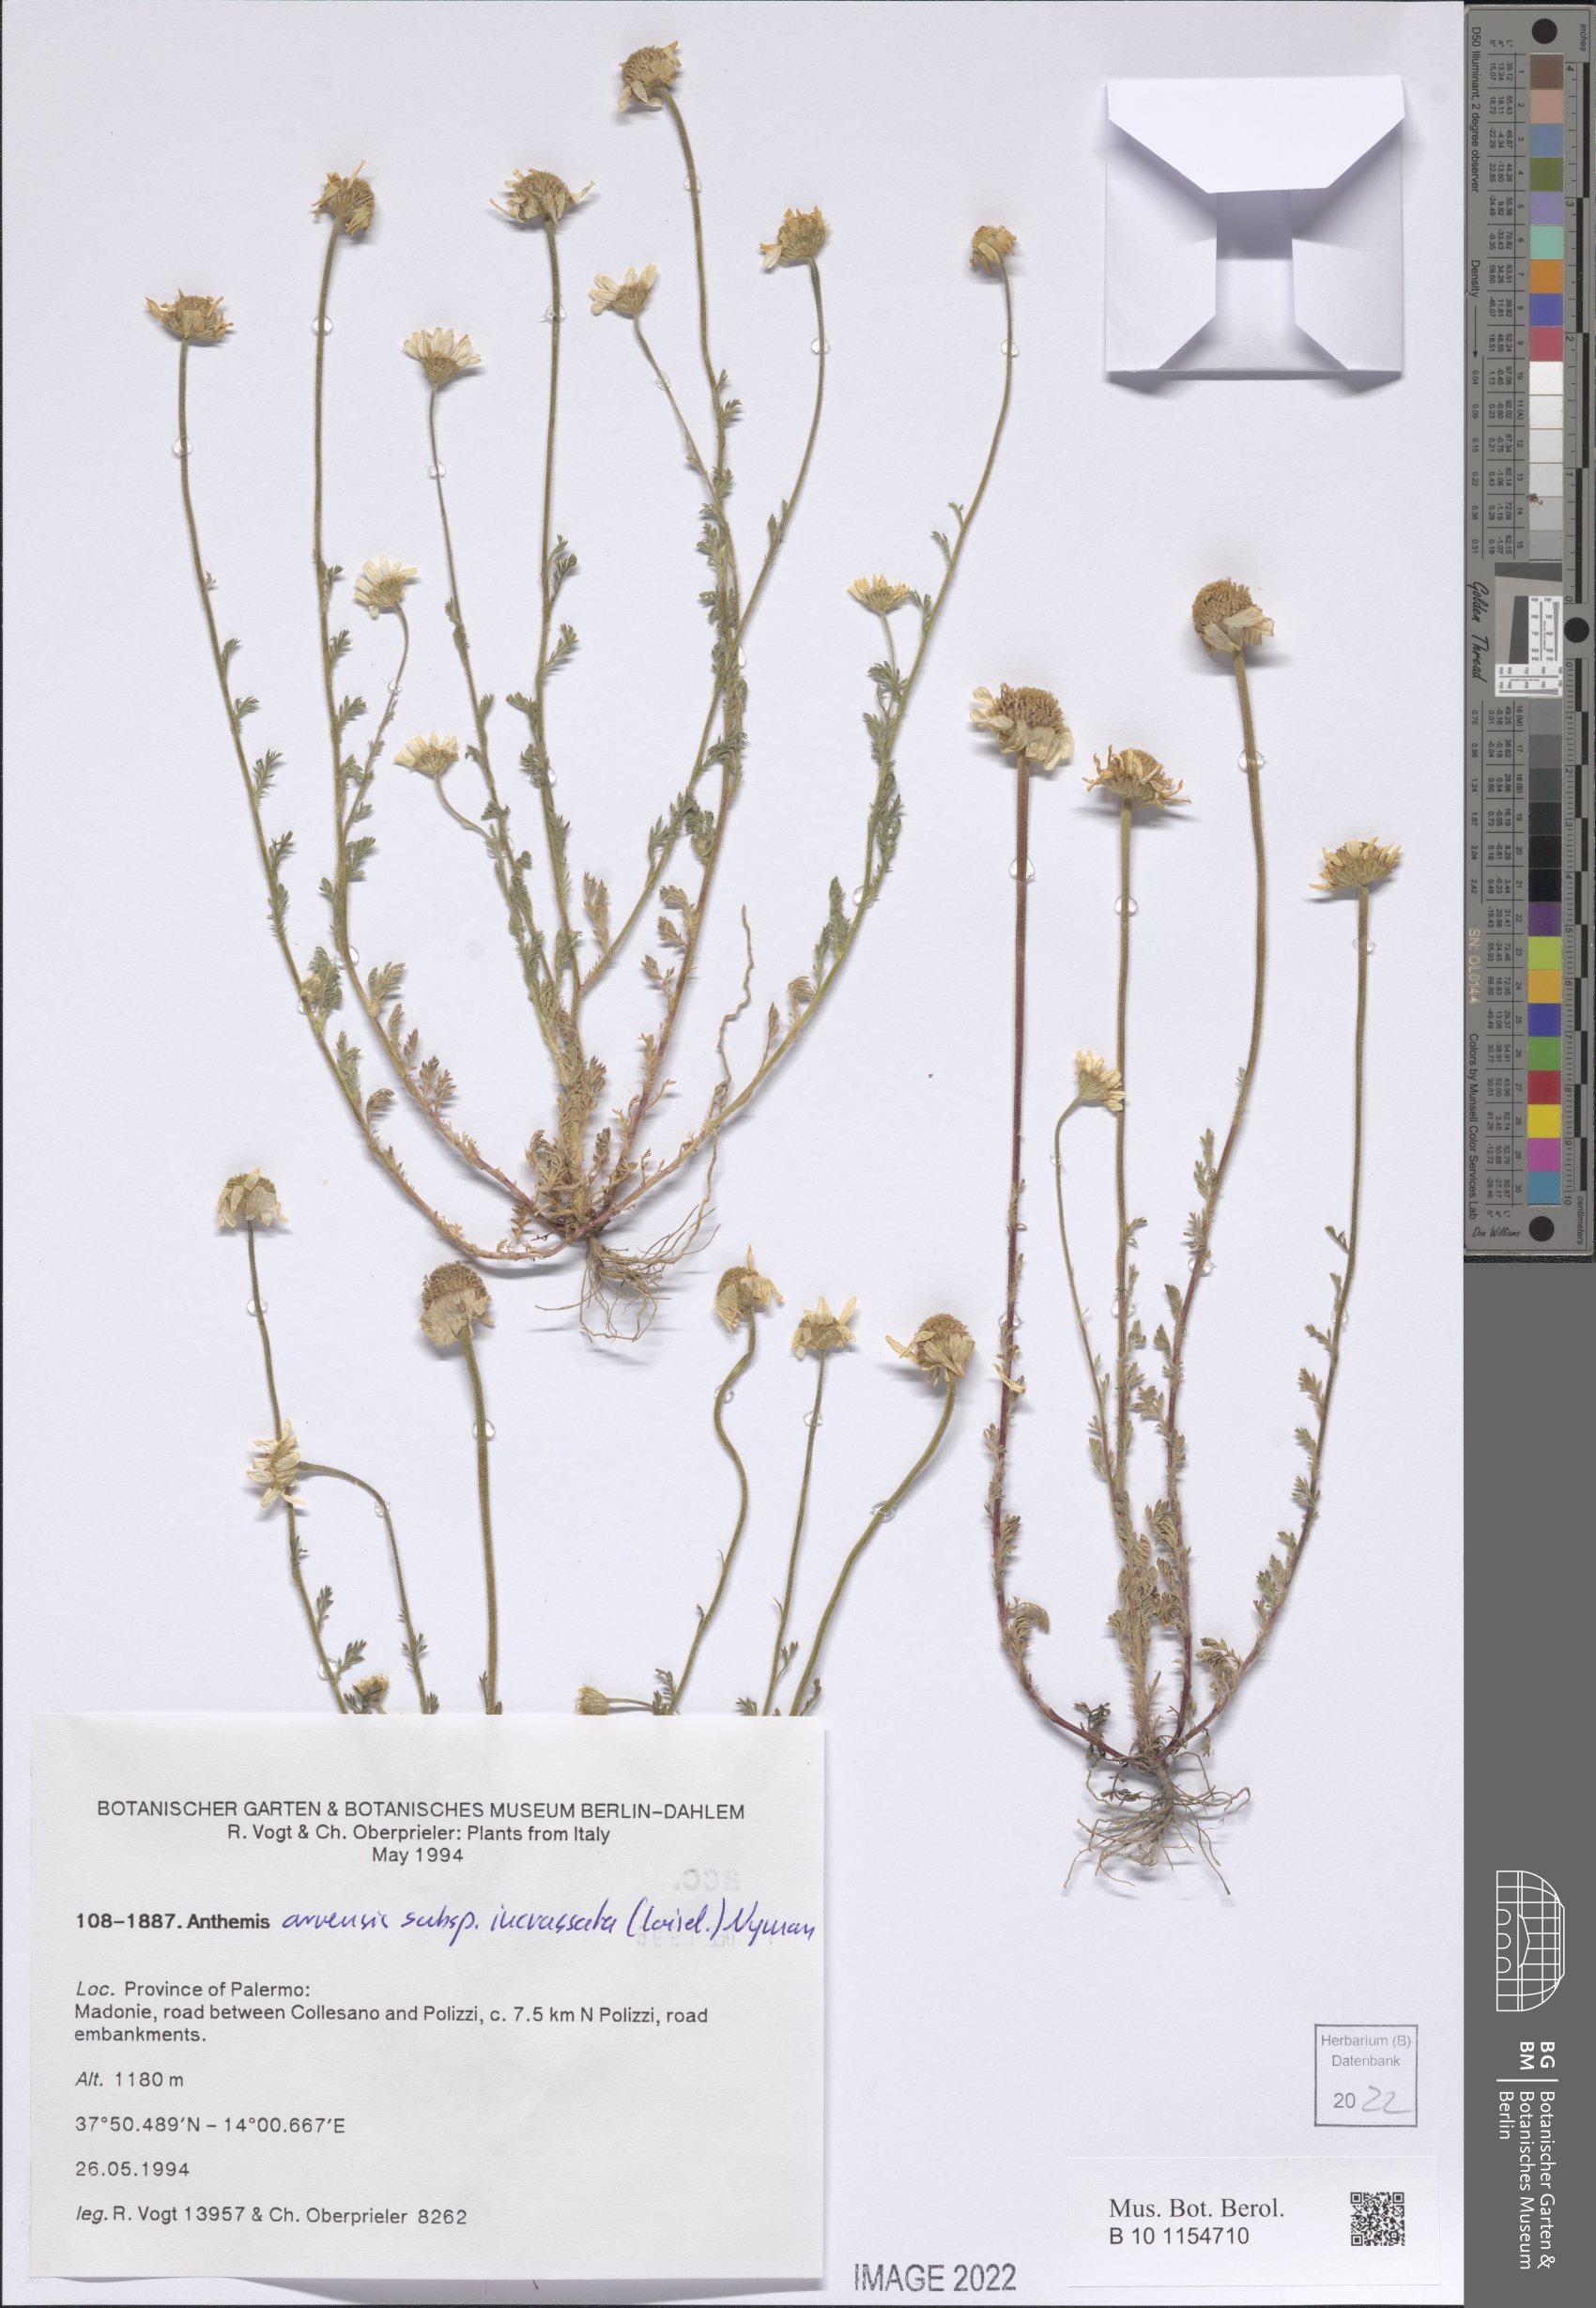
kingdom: Plantae
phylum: Tracheophyta
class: Magnoliopsida
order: Asterales
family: Asteraceae
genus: Anthemis
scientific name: Anthemis arvensis
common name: Corn chamomile
